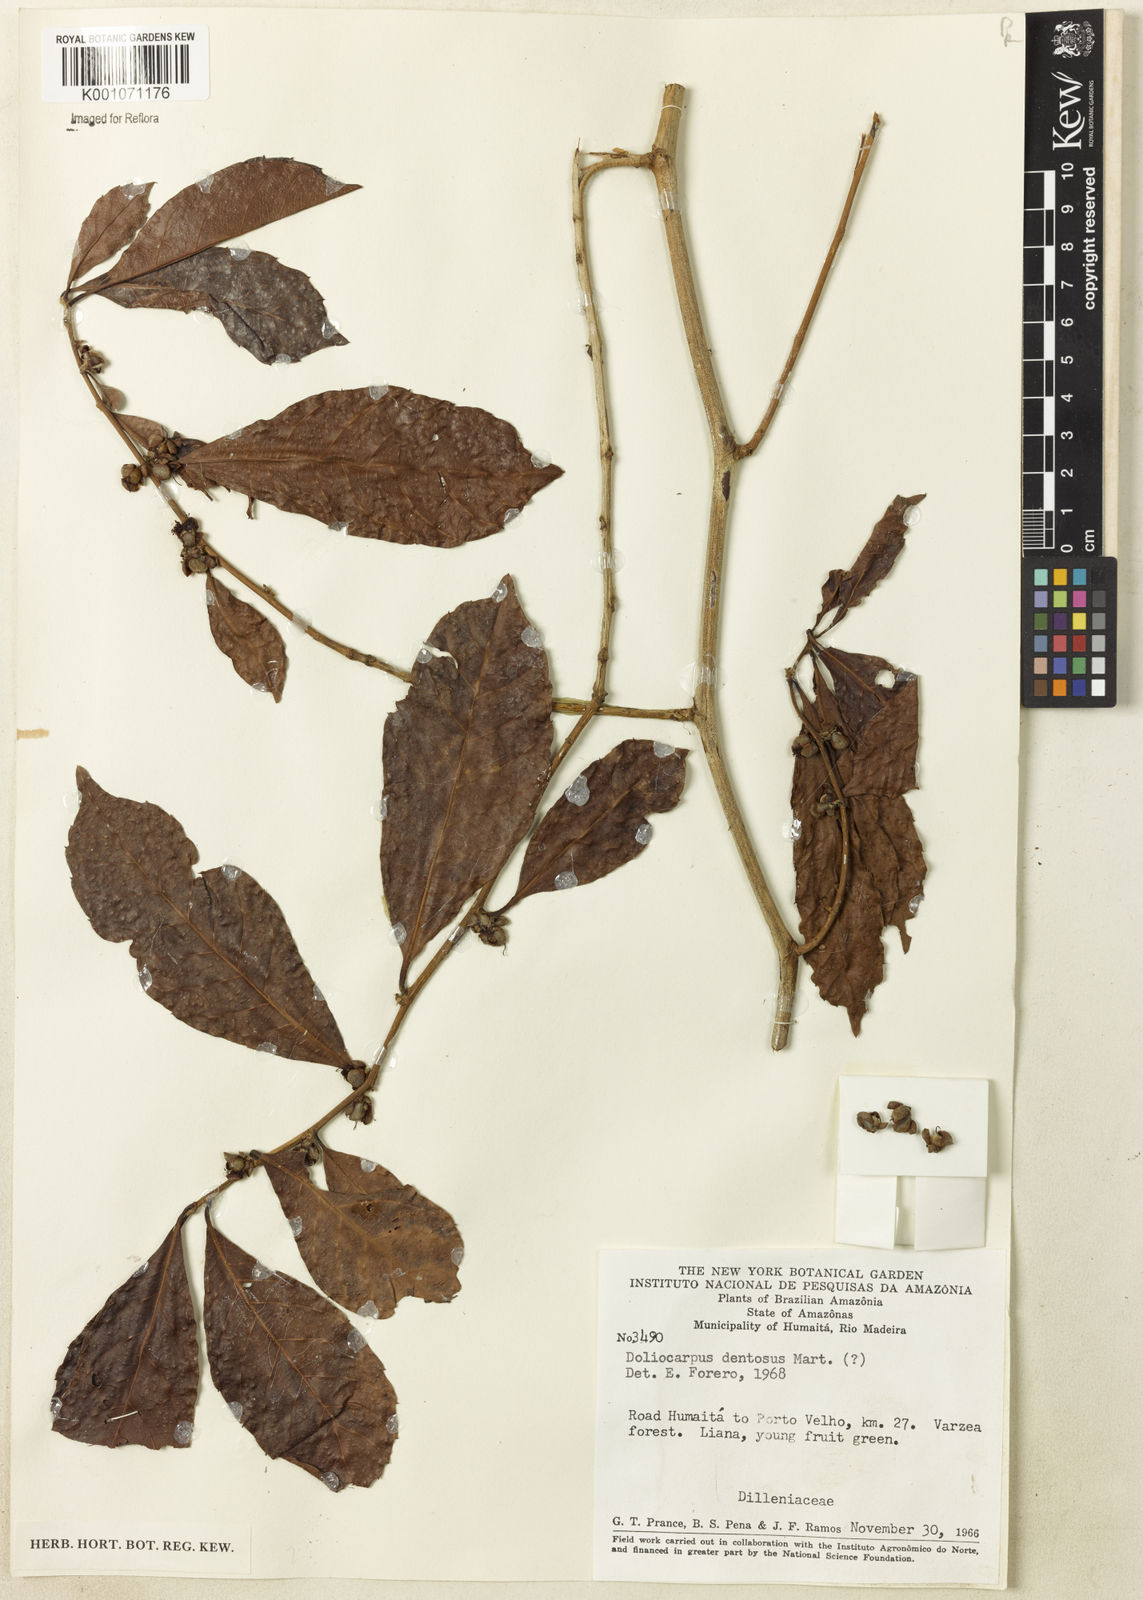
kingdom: Plantae
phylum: Tracheophyta
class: Magnoliopsida
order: Dilleniales
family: Dilleniaceae
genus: Doliocarpus
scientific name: Doliocarpus major
